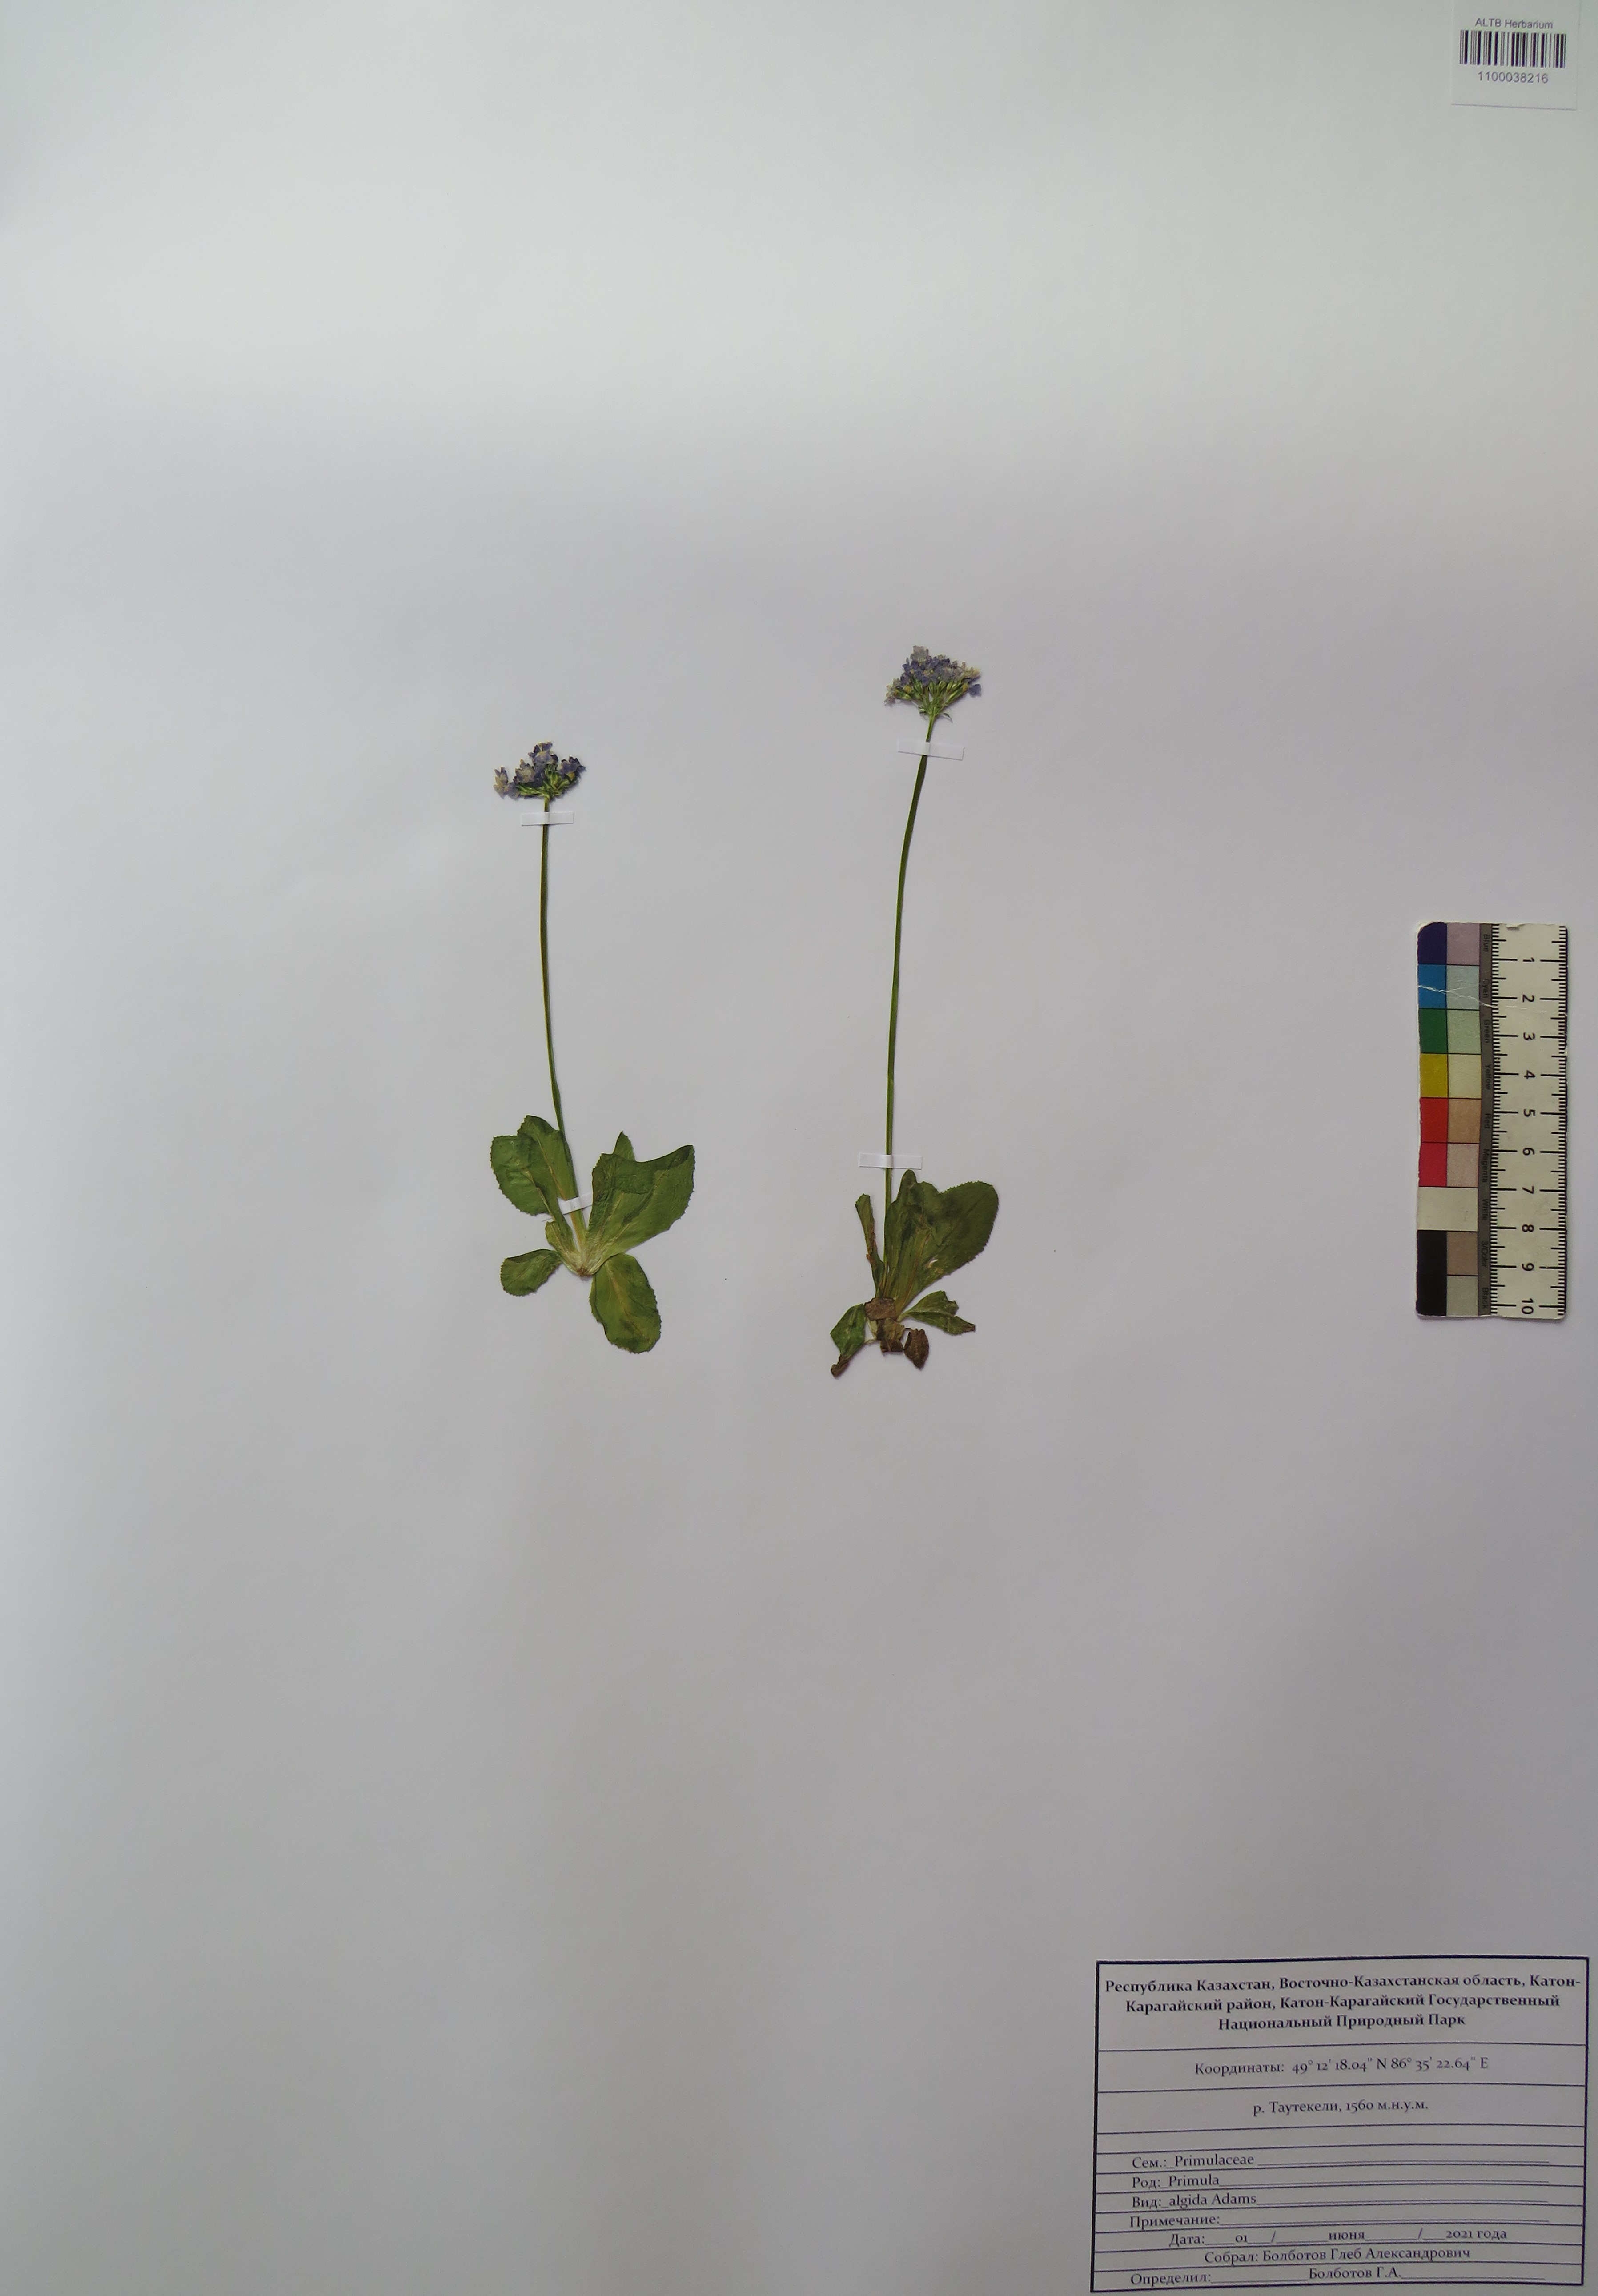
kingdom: Plantae
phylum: Tracheophyta
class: Magnoliopsida
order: Ericales
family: Primulaceae
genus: Primula
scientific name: Primula algida
